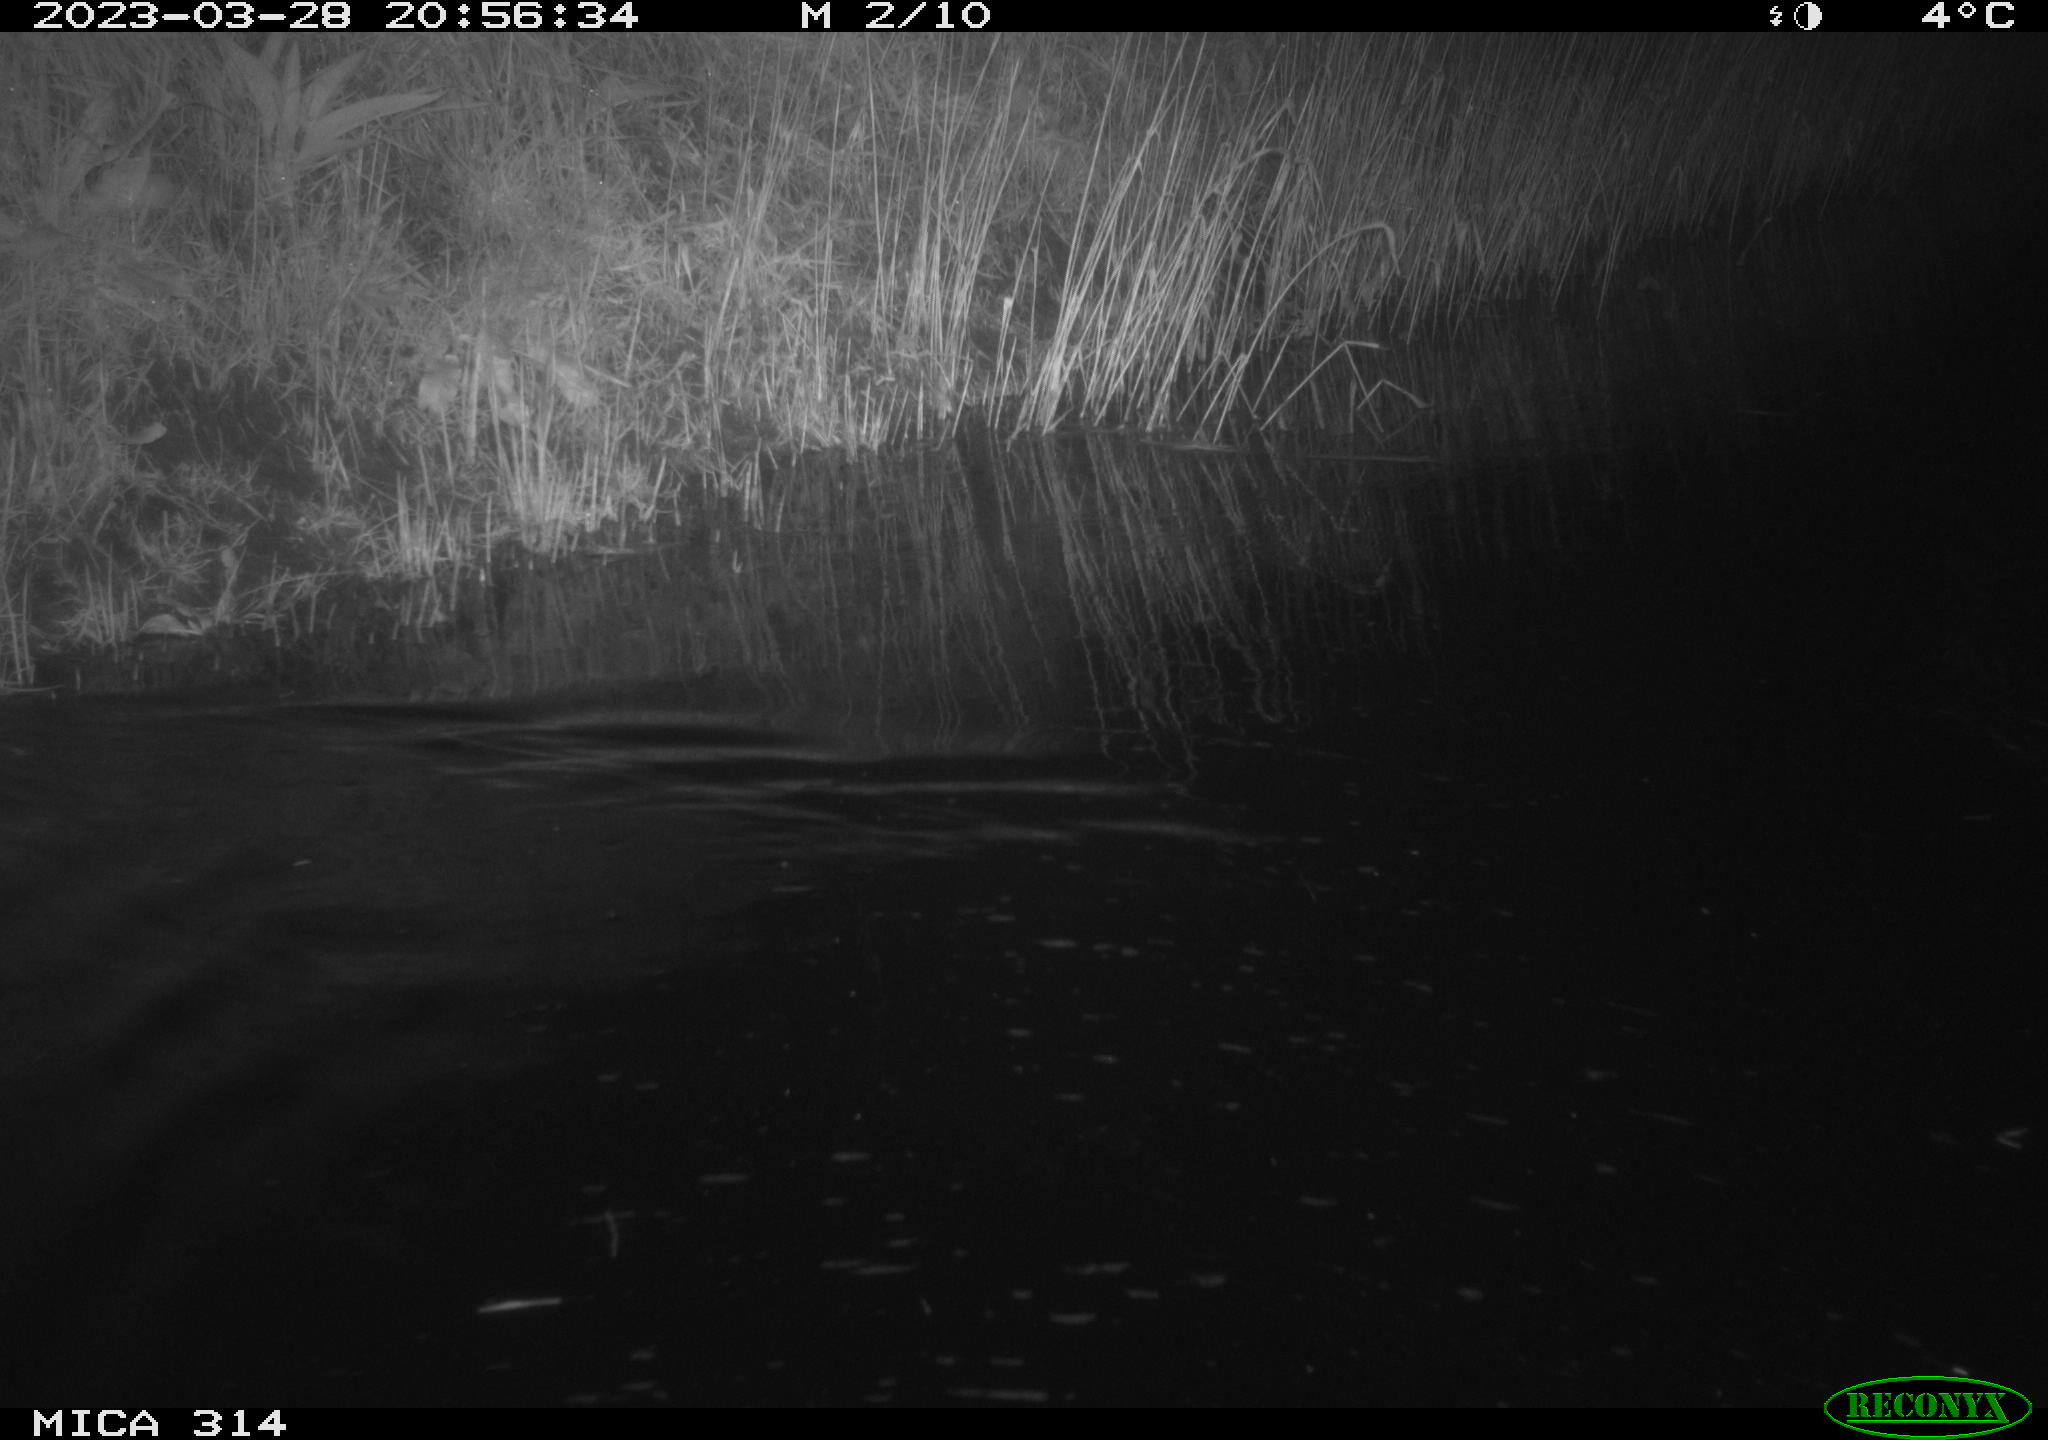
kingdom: Animalia
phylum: Chordata
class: Mammalia
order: Rodentia
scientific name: Rodentia
